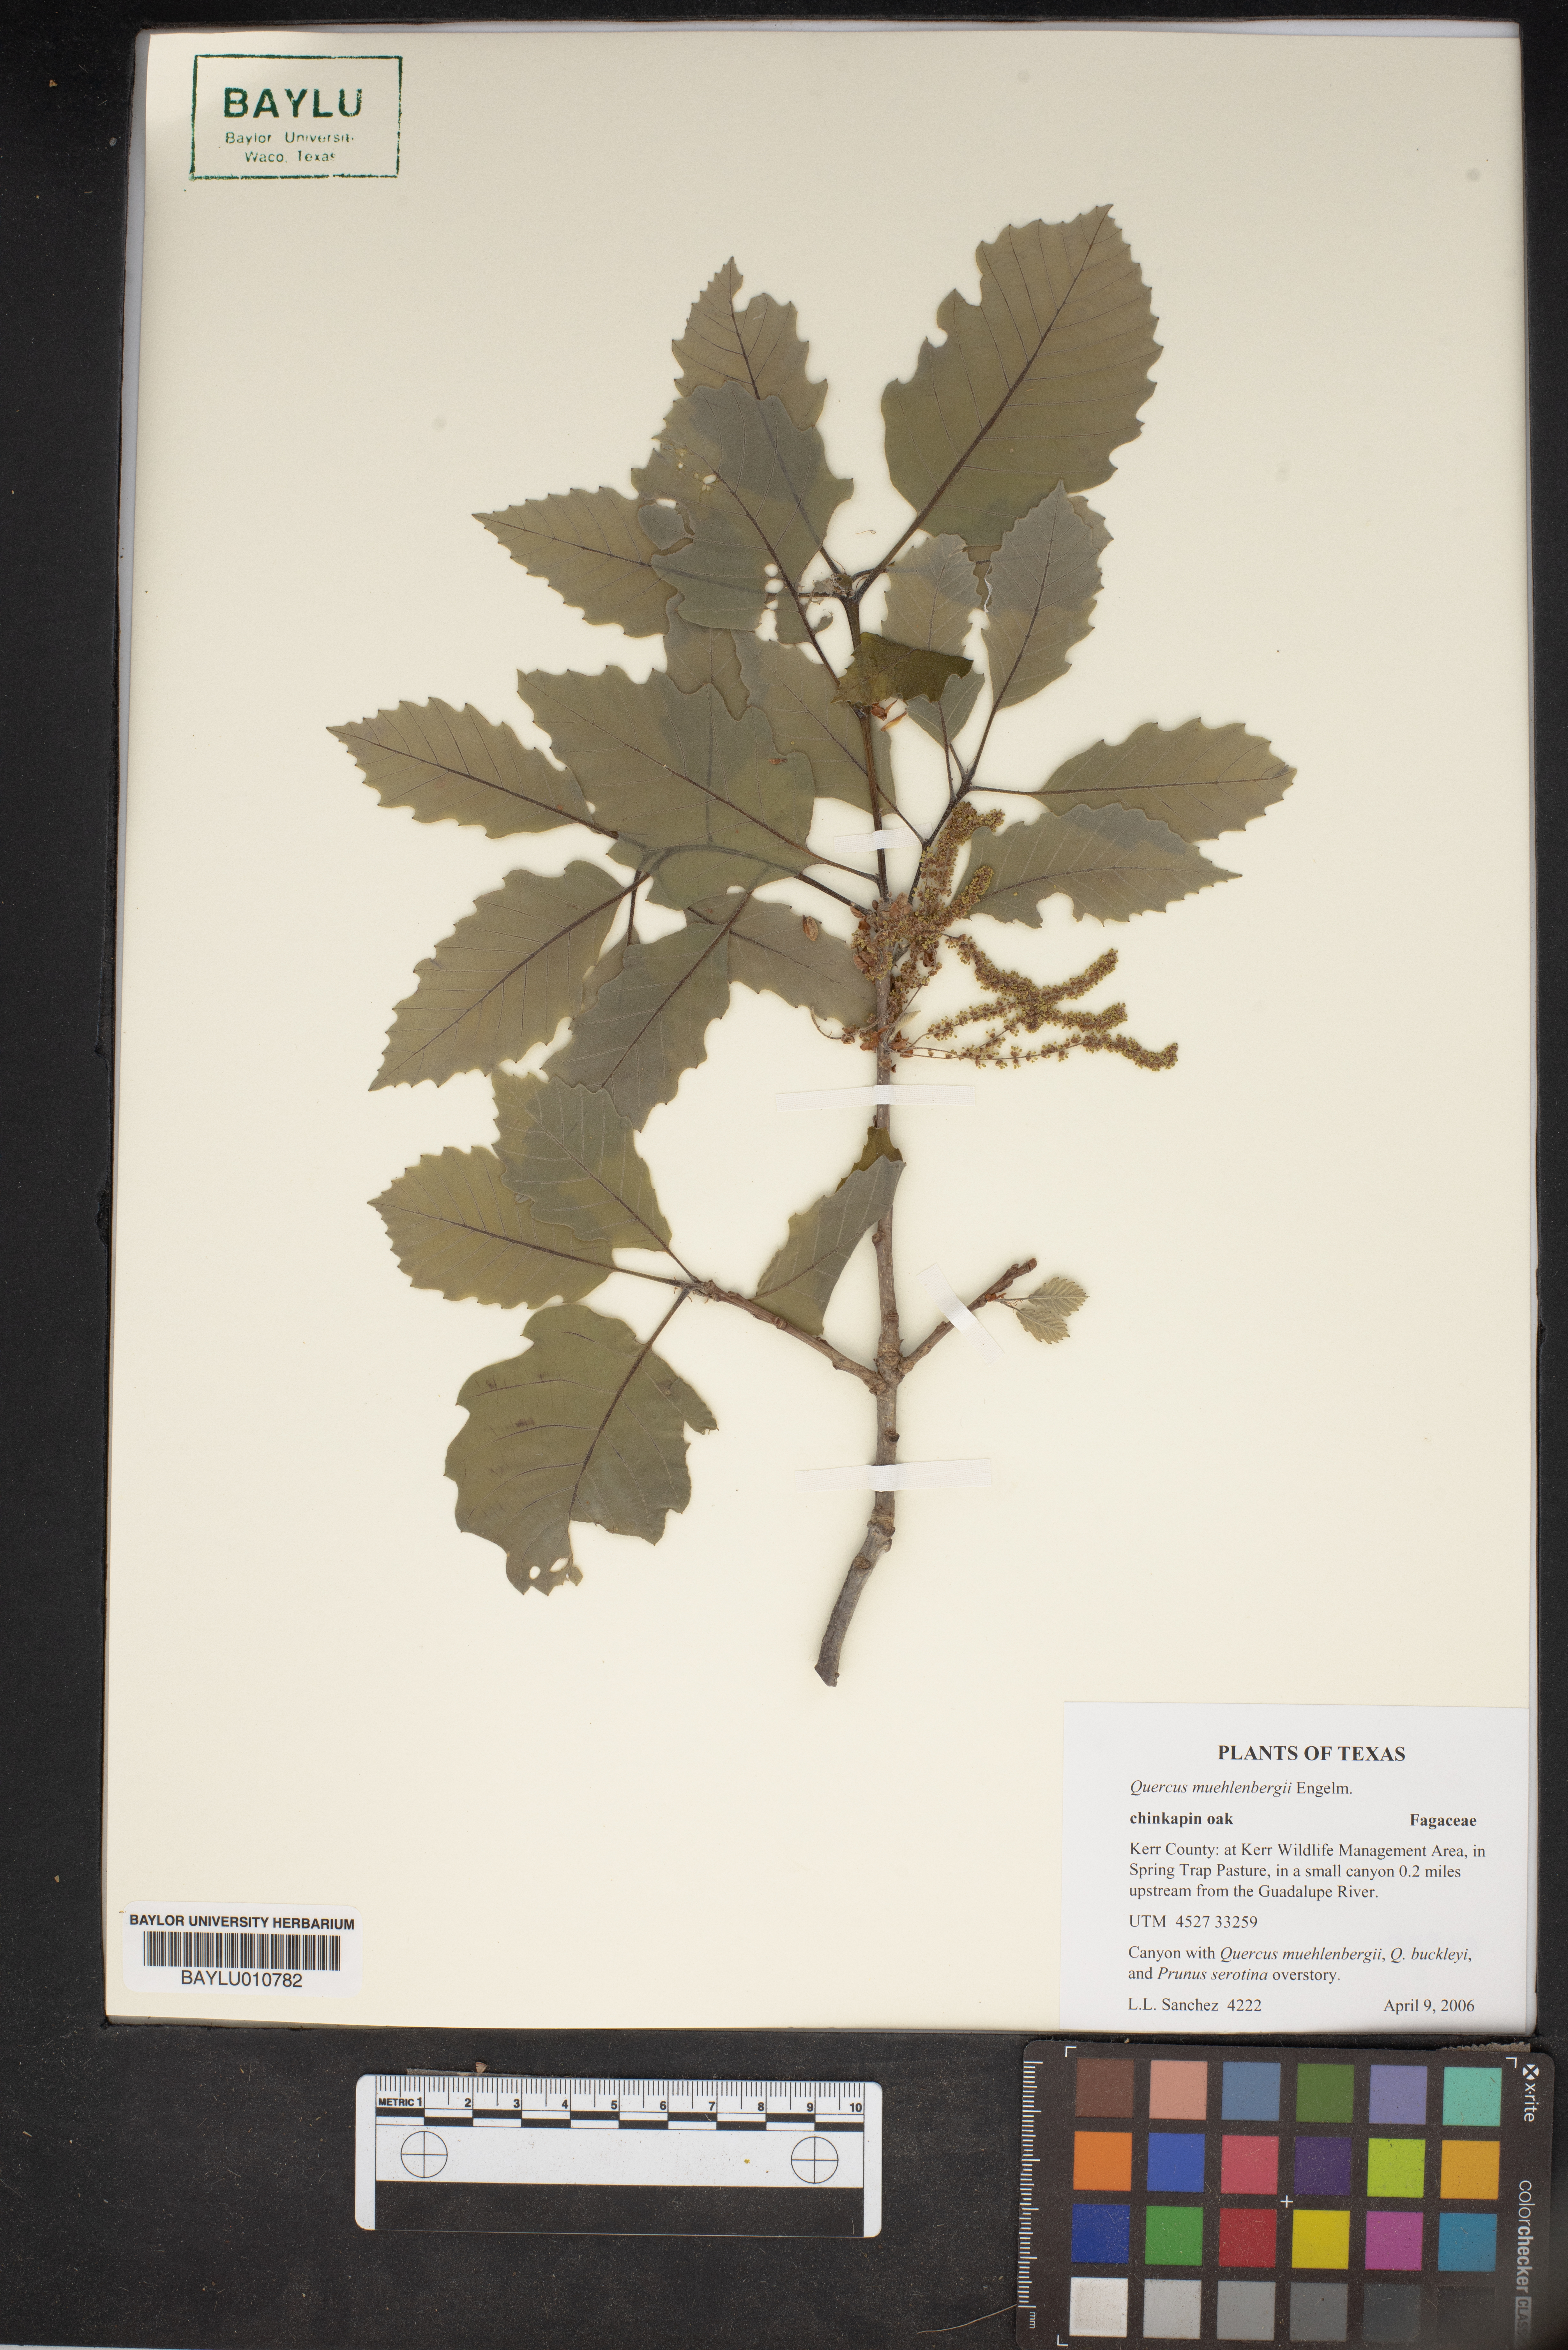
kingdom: Plantae
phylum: Tracheophyta
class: Magnoliopsida
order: Fagales
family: Fagaceae
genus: Quercus
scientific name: Quercus muehlenbergii
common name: Chinkapin oak
